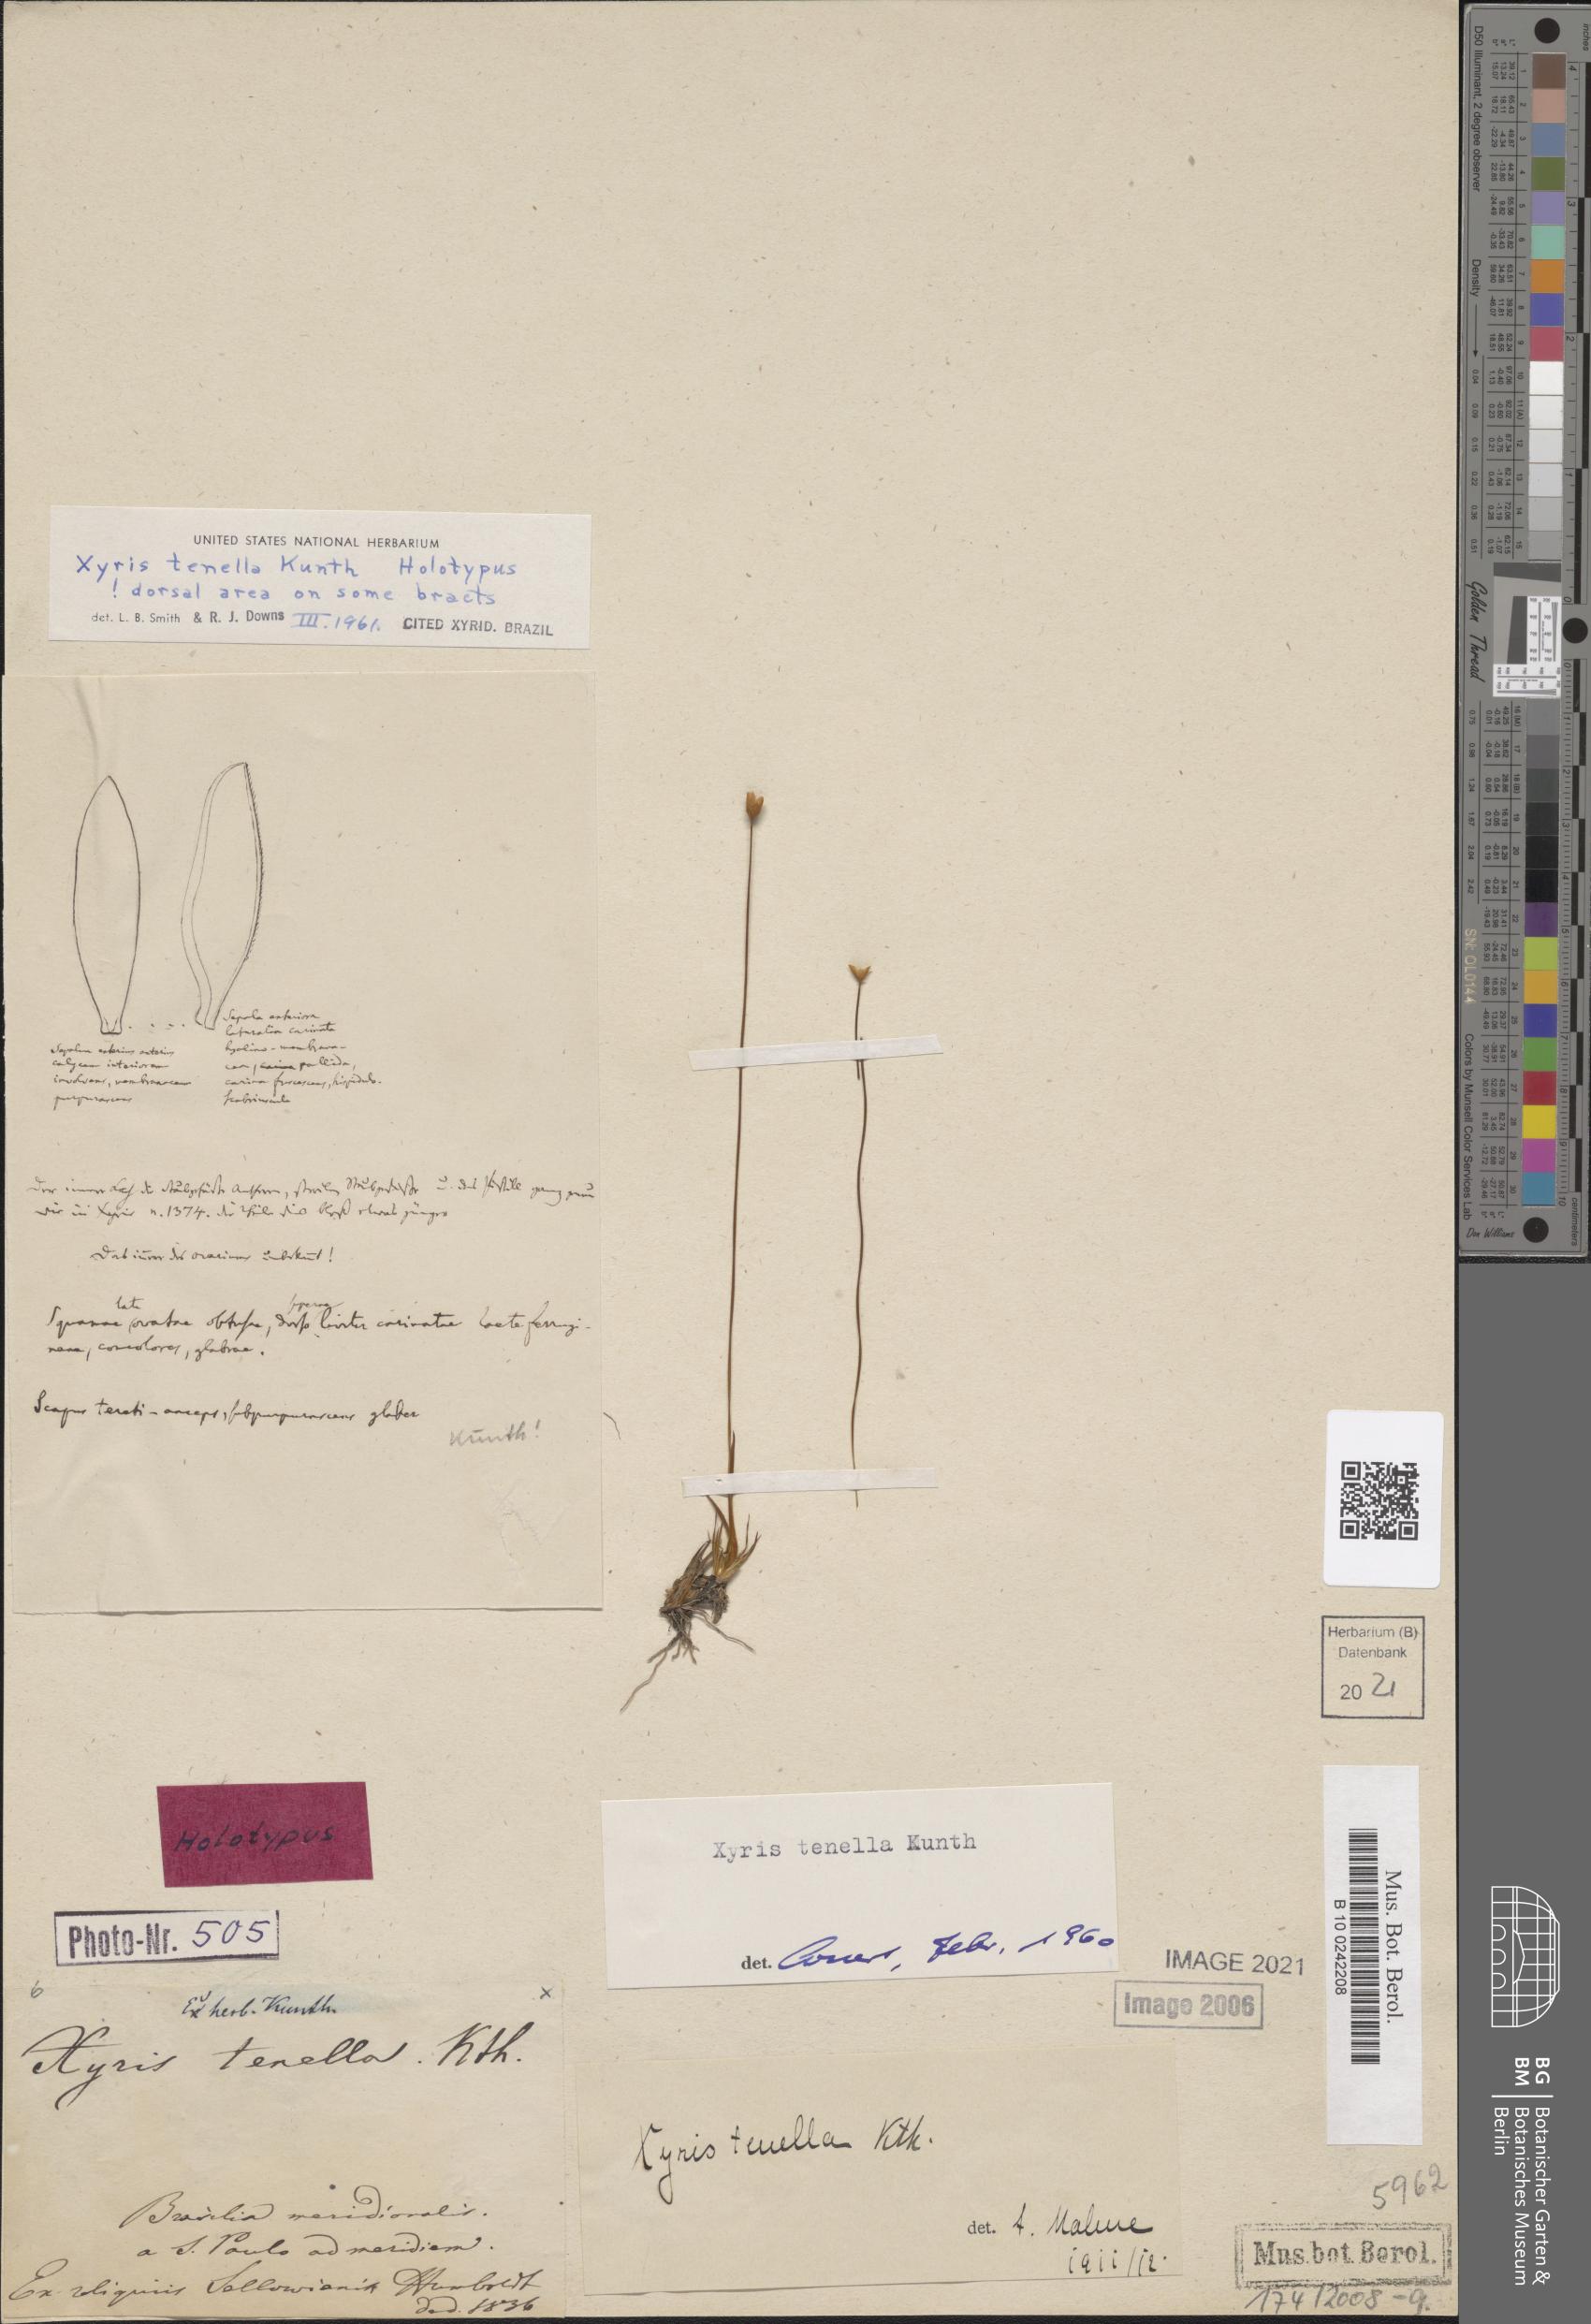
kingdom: Plantae
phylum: Tracheophyta
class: Liliopsida
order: Poales
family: Xyridaceae
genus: Xyris
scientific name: Xyris tenella
